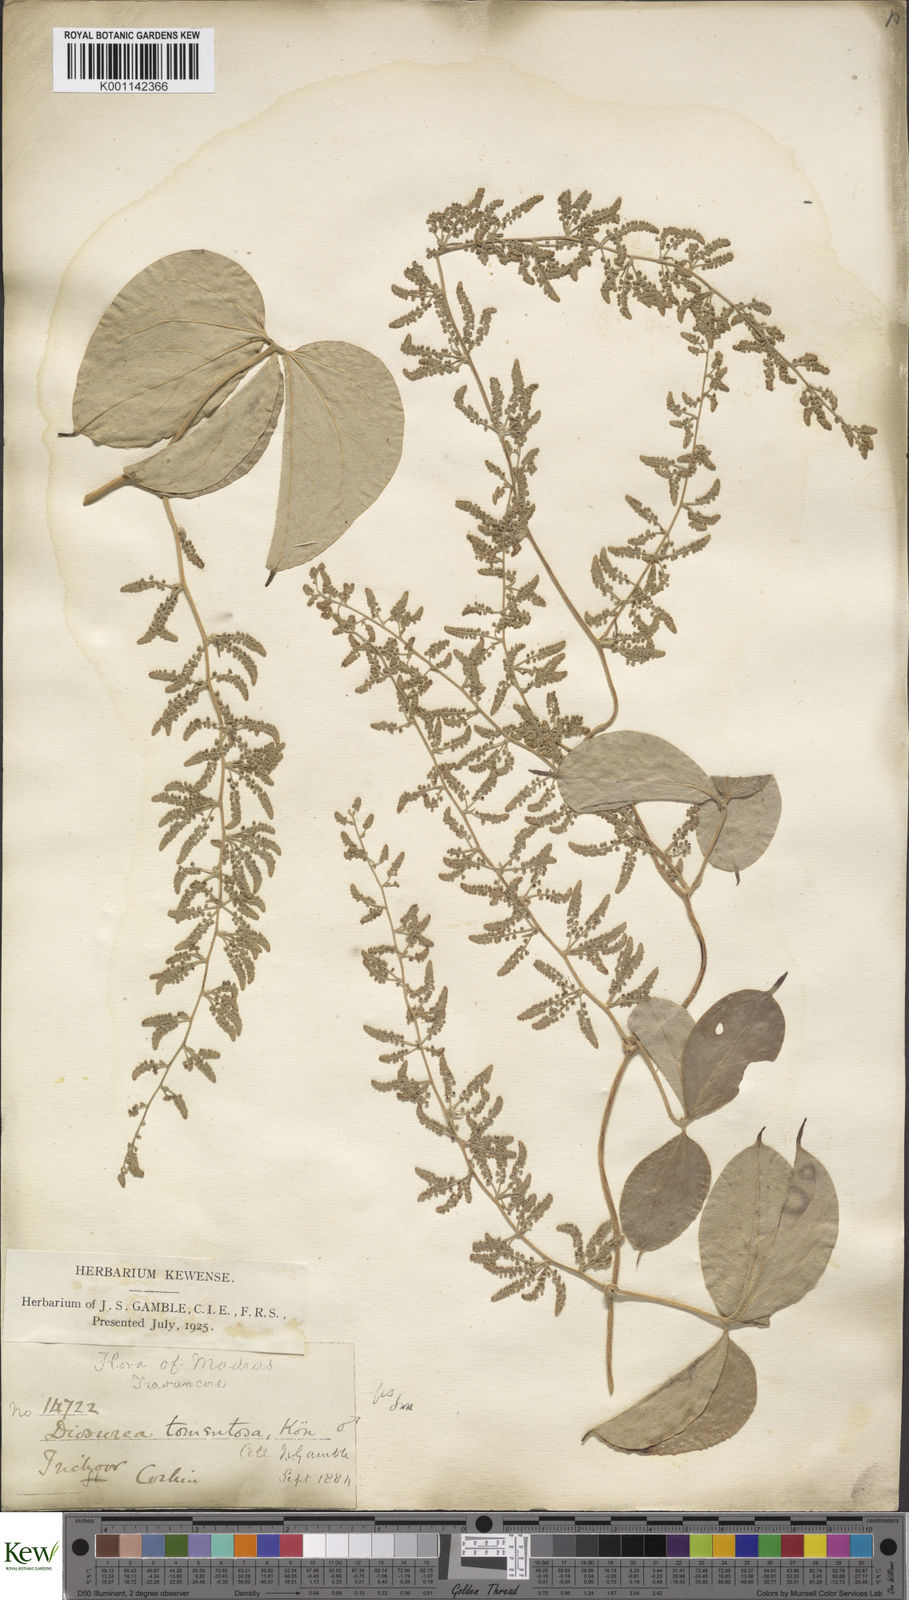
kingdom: Plantae
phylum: Tracheophyta
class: Liliopsida
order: Dioscoreales
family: Dioscoreaceae
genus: Dioscorea
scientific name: Dioscorea
